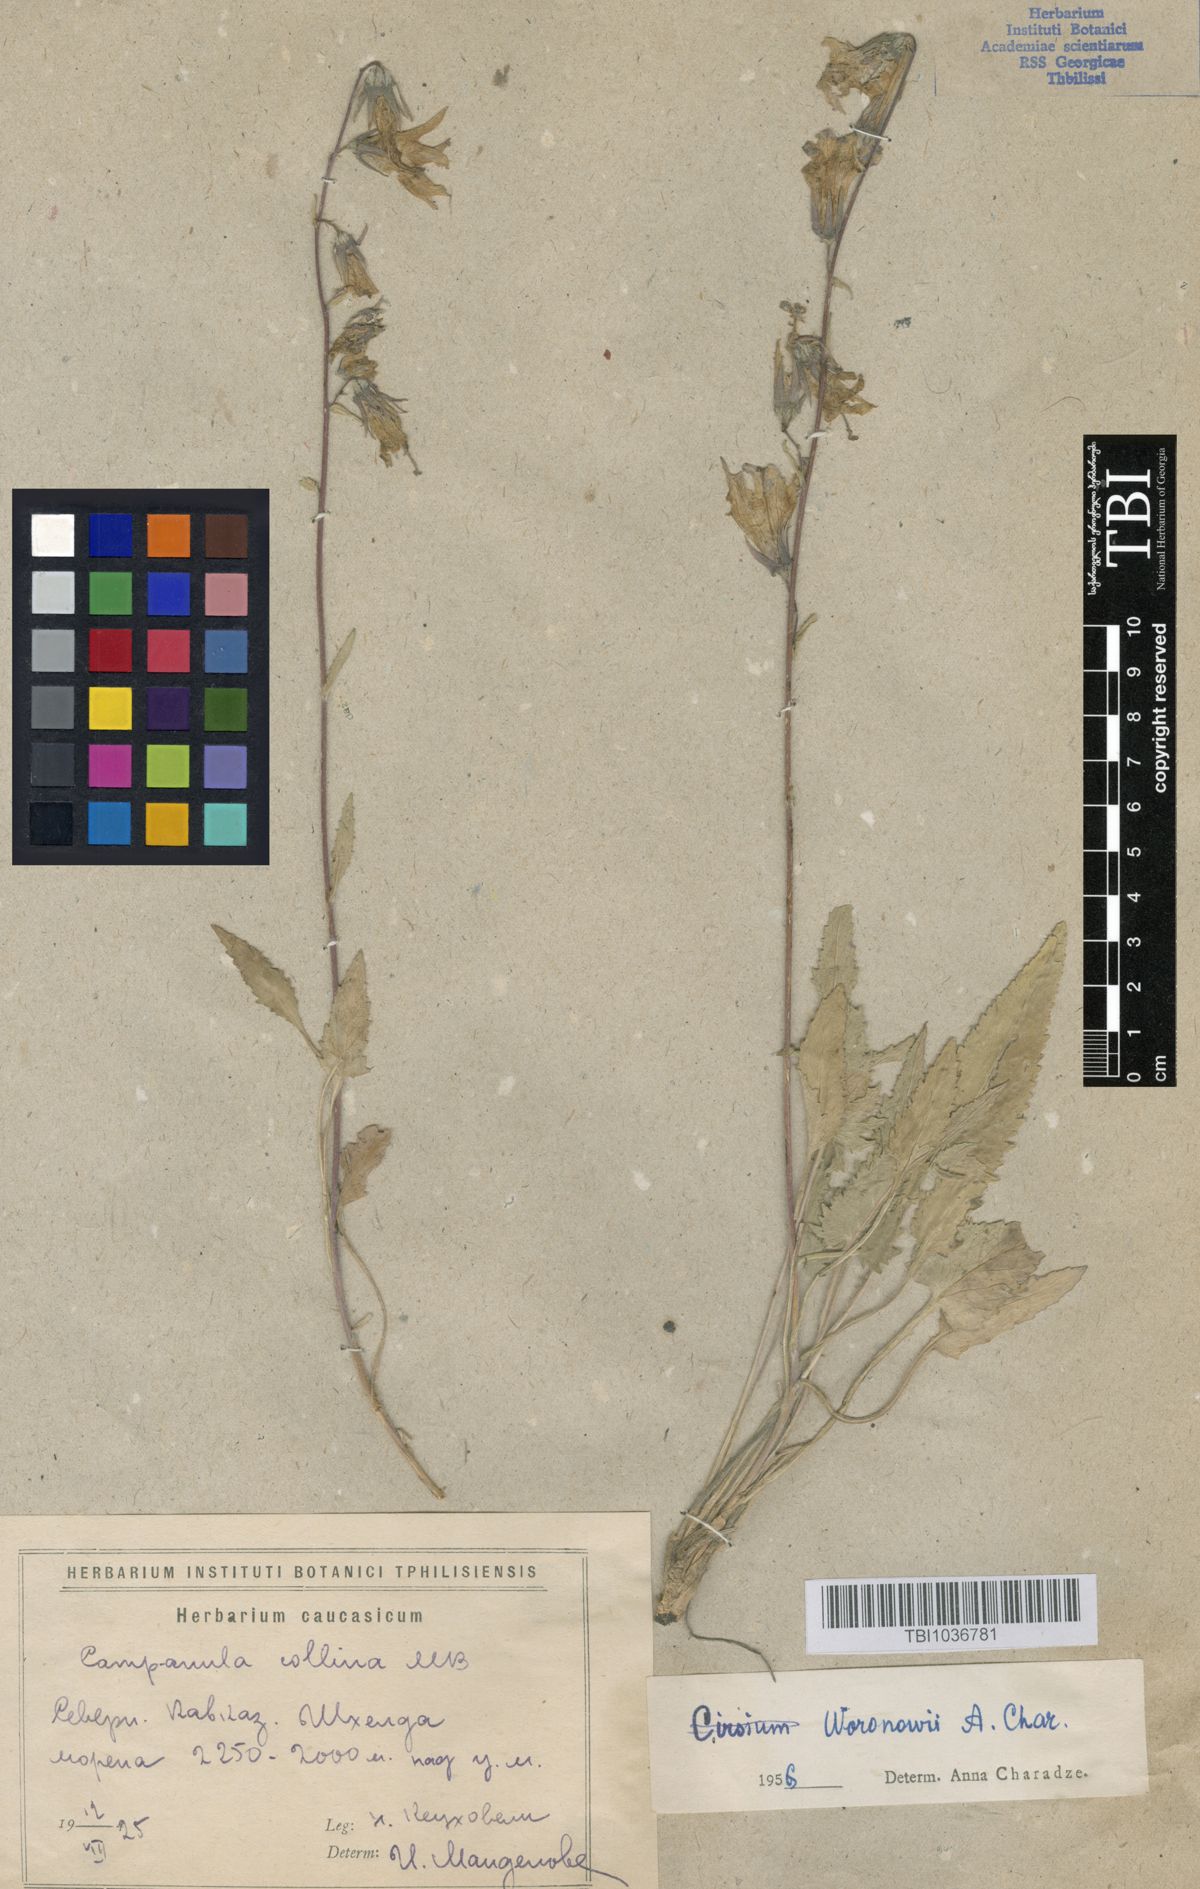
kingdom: Plantae
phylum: Tracheophyta
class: Magnoliopsida
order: Asterales
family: Campanulaceae
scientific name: Campanulaceae
